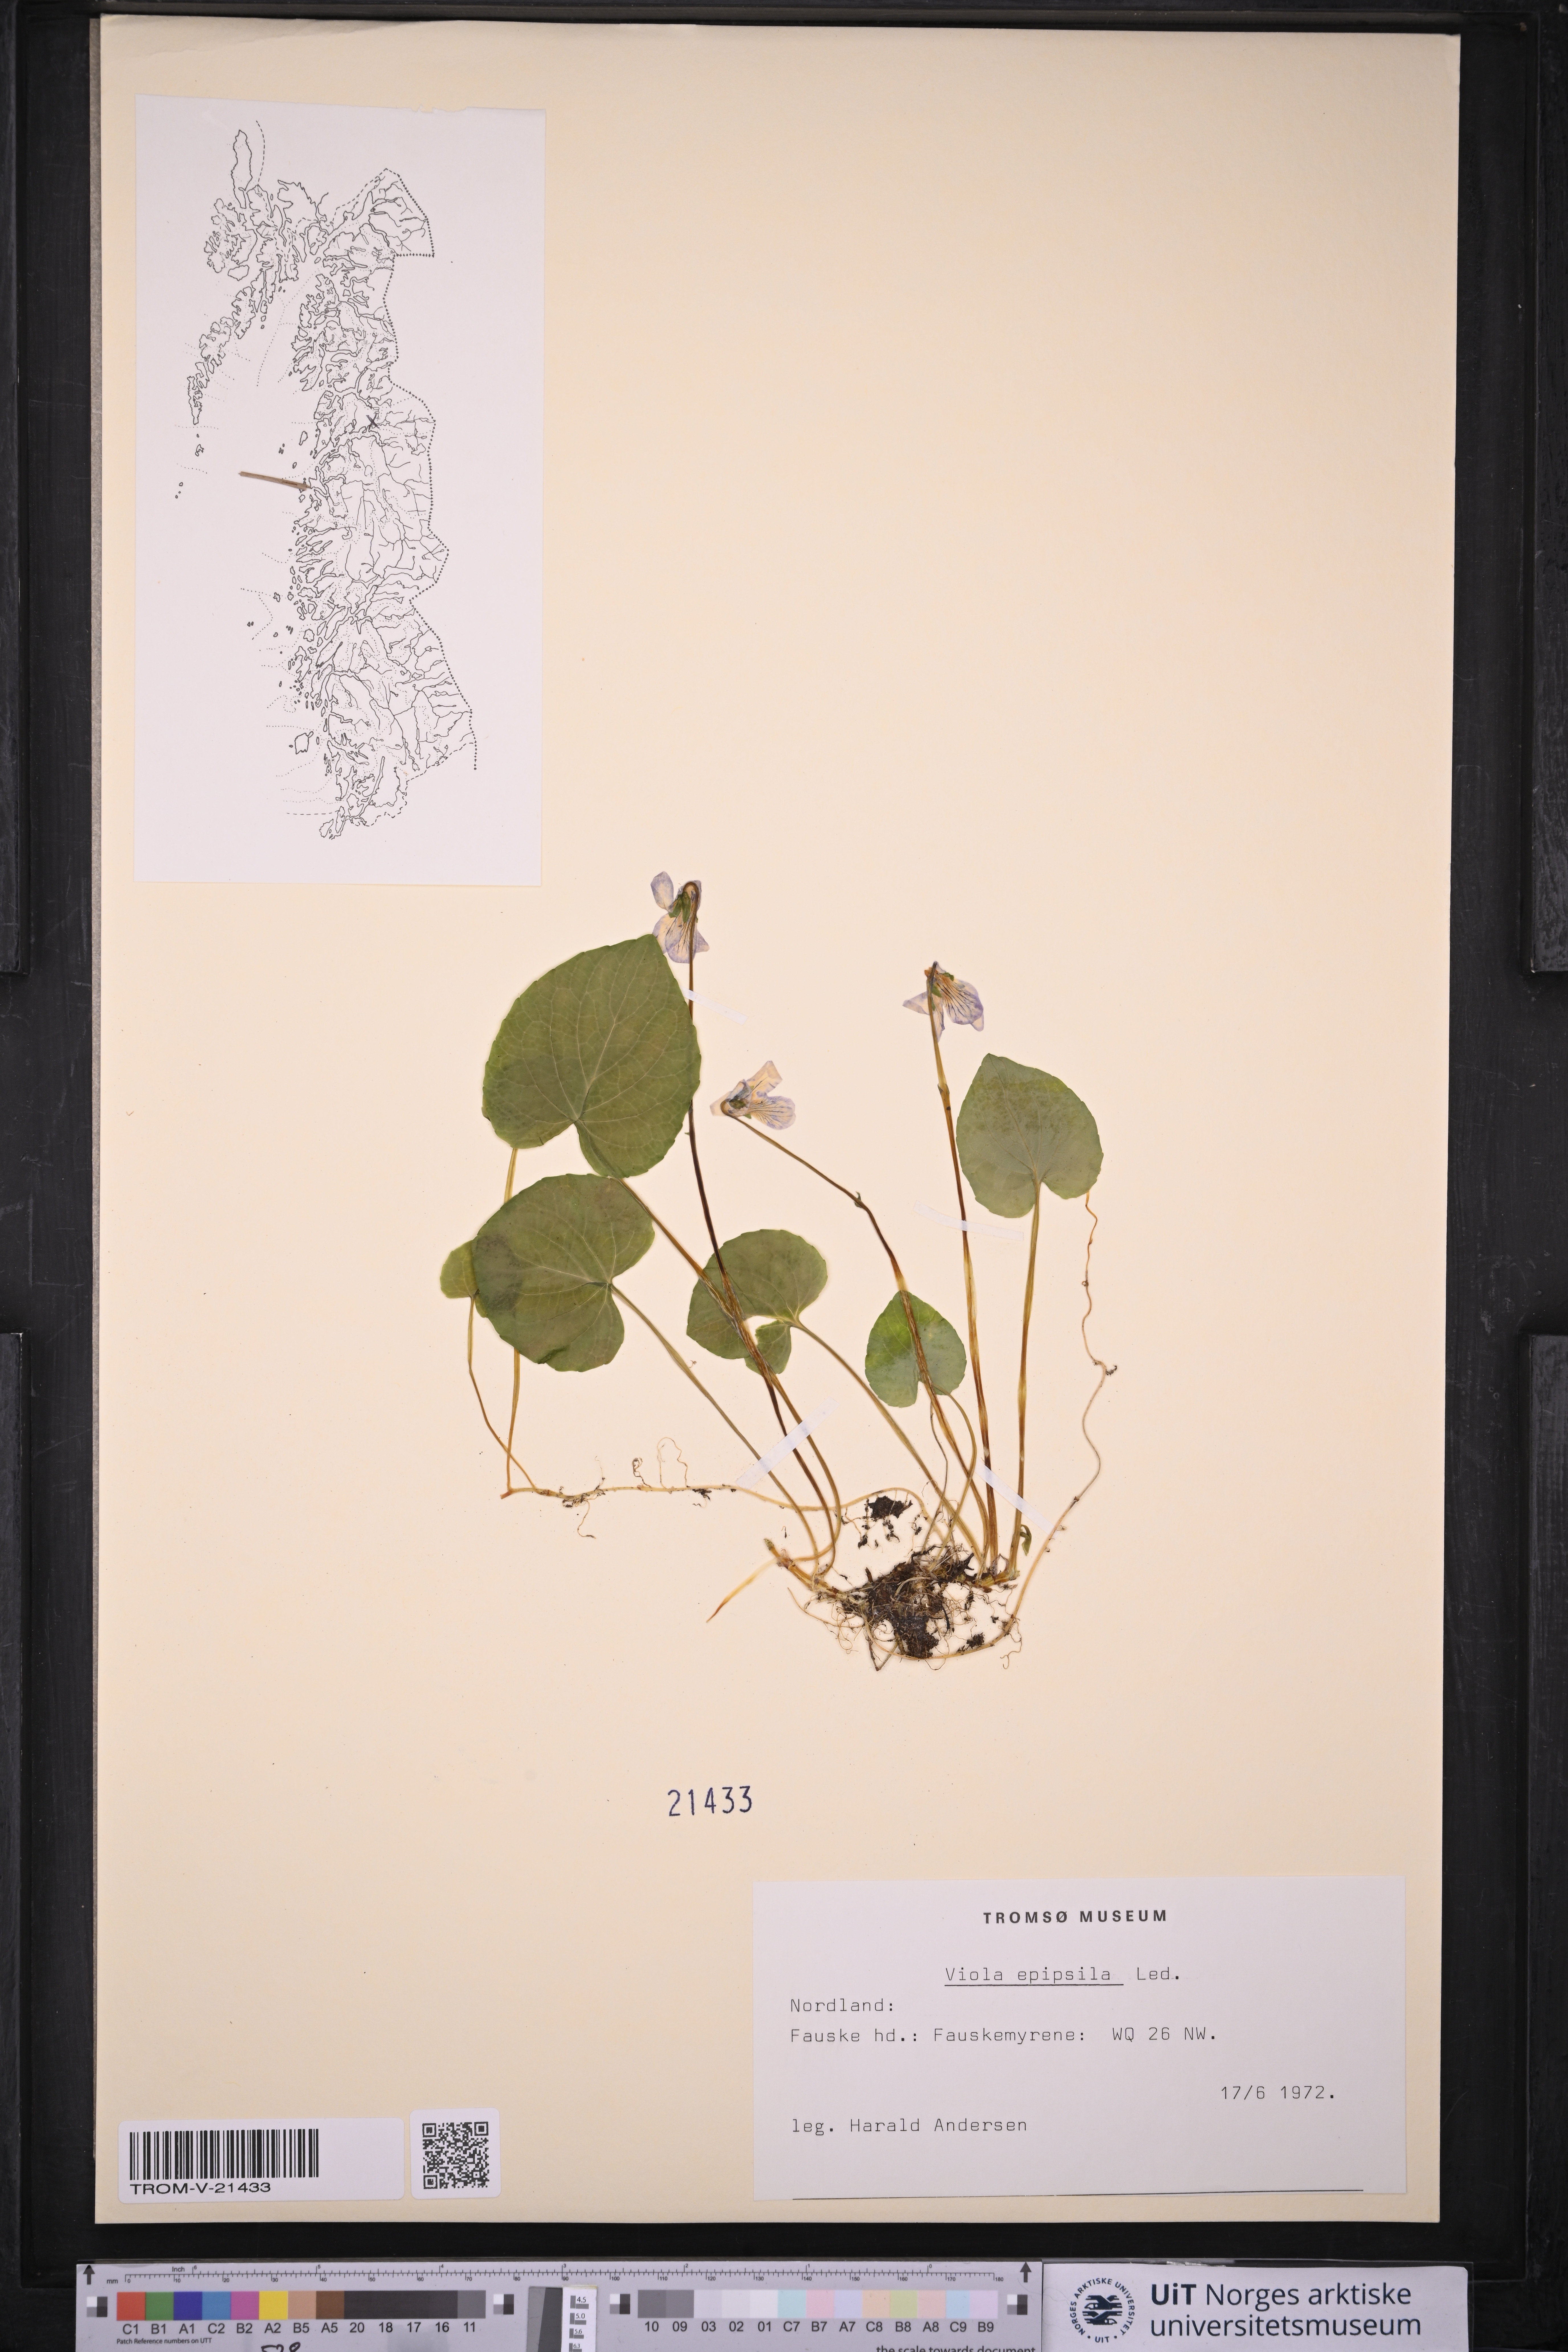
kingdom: Plantae
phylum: Tracheophyta
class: Magnoliopsida
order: Malpighiales
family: Violaceae
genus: Viola
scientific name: Viola epipsila
